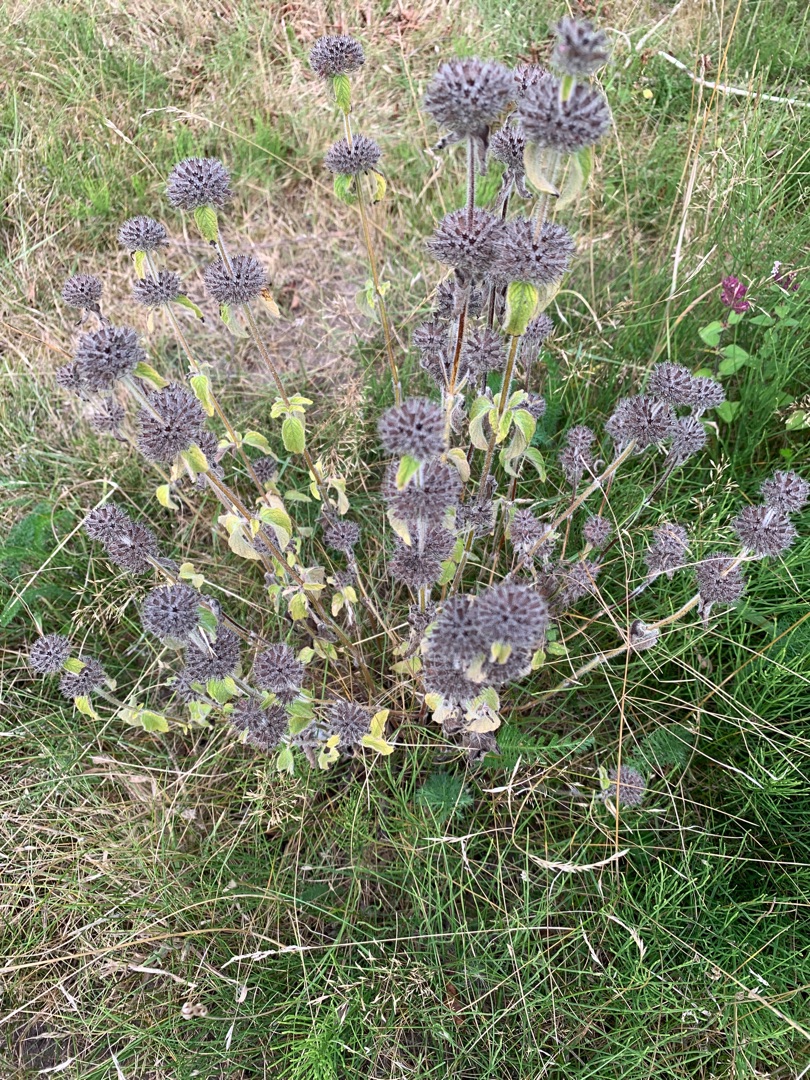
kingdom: Plantae
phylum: Tracheophyta
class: Magnoliopsida
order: Lamiales
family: Lamiaceae
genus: Clinopodium
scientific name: Clinopodium vulgare
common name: Kransbørste
